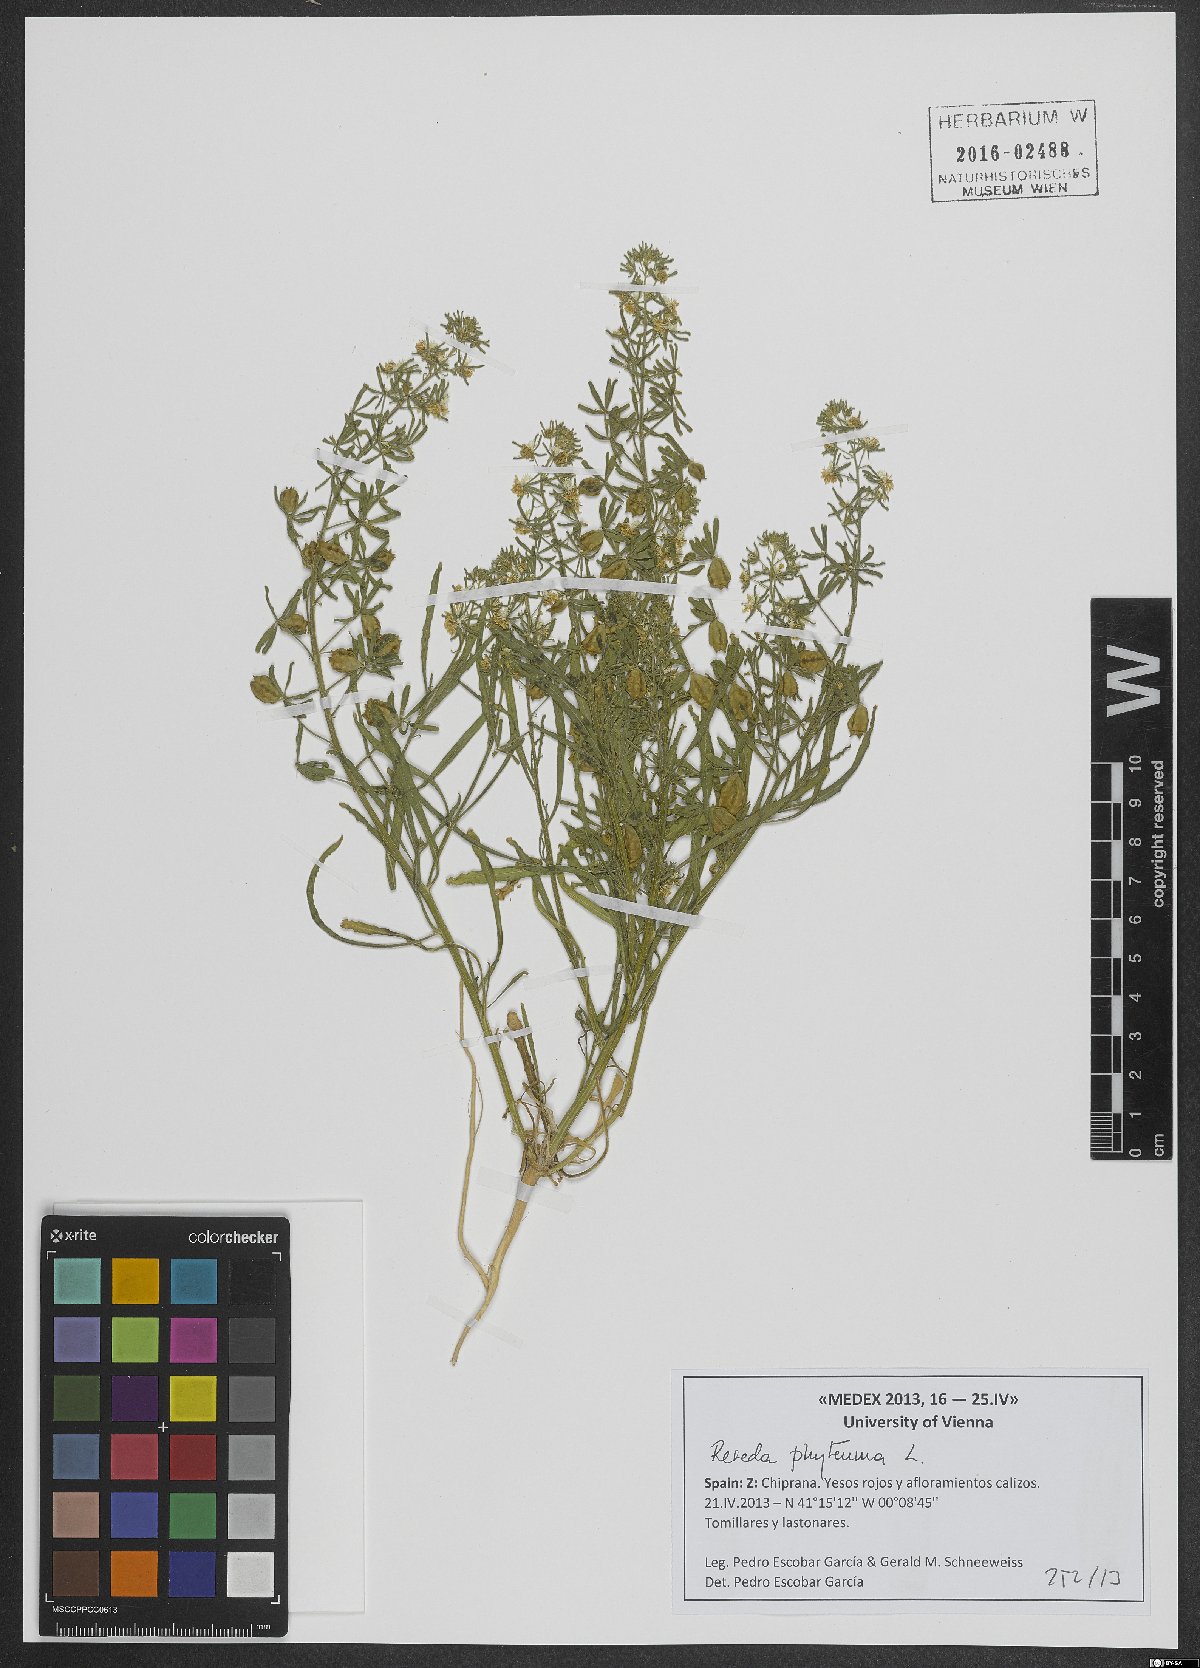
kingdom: Plantae
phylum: Tracheophyta
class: Magnoliopsida
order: Brassicales
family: Resedaceae
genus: Reseda
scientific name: Reseda phyteuma
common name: Corn mignonette
